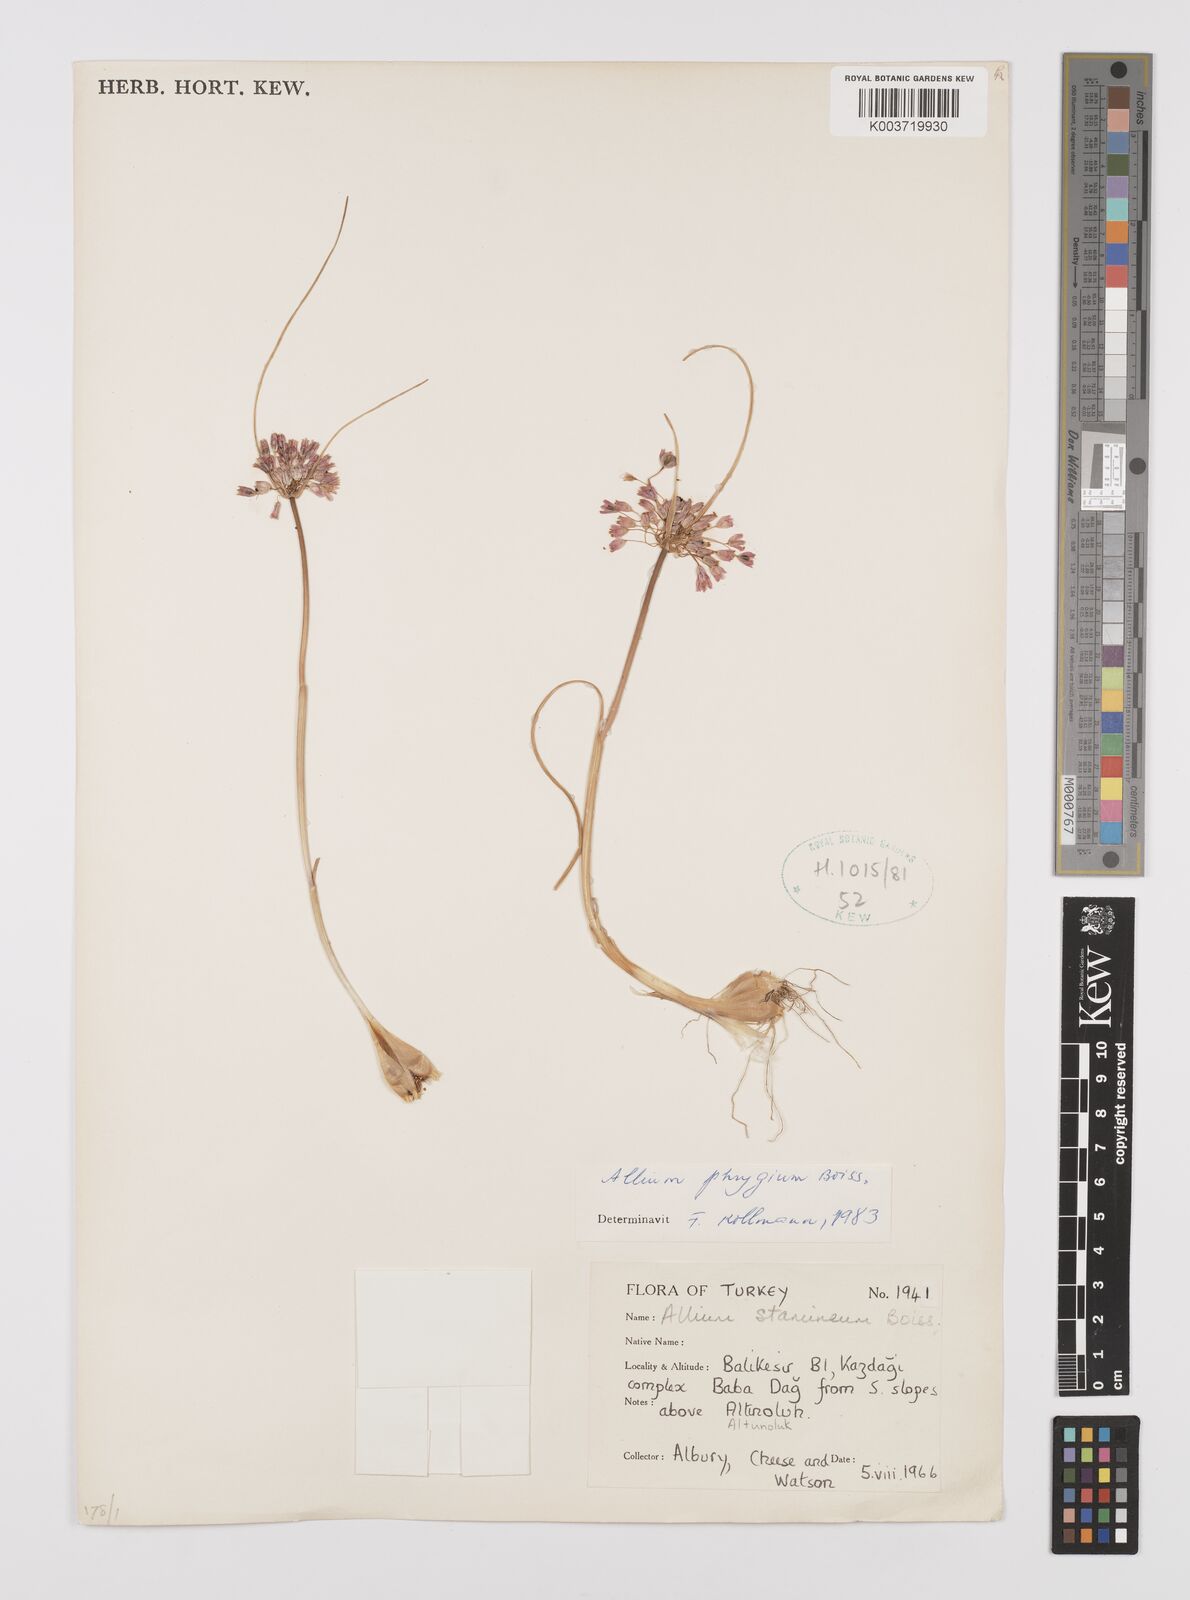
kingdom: Plantae
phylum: Tracheophyta
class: Liliopsida
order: Asparagales
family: Amaryllidaceae
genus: Allium
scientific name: Allium phrygium
